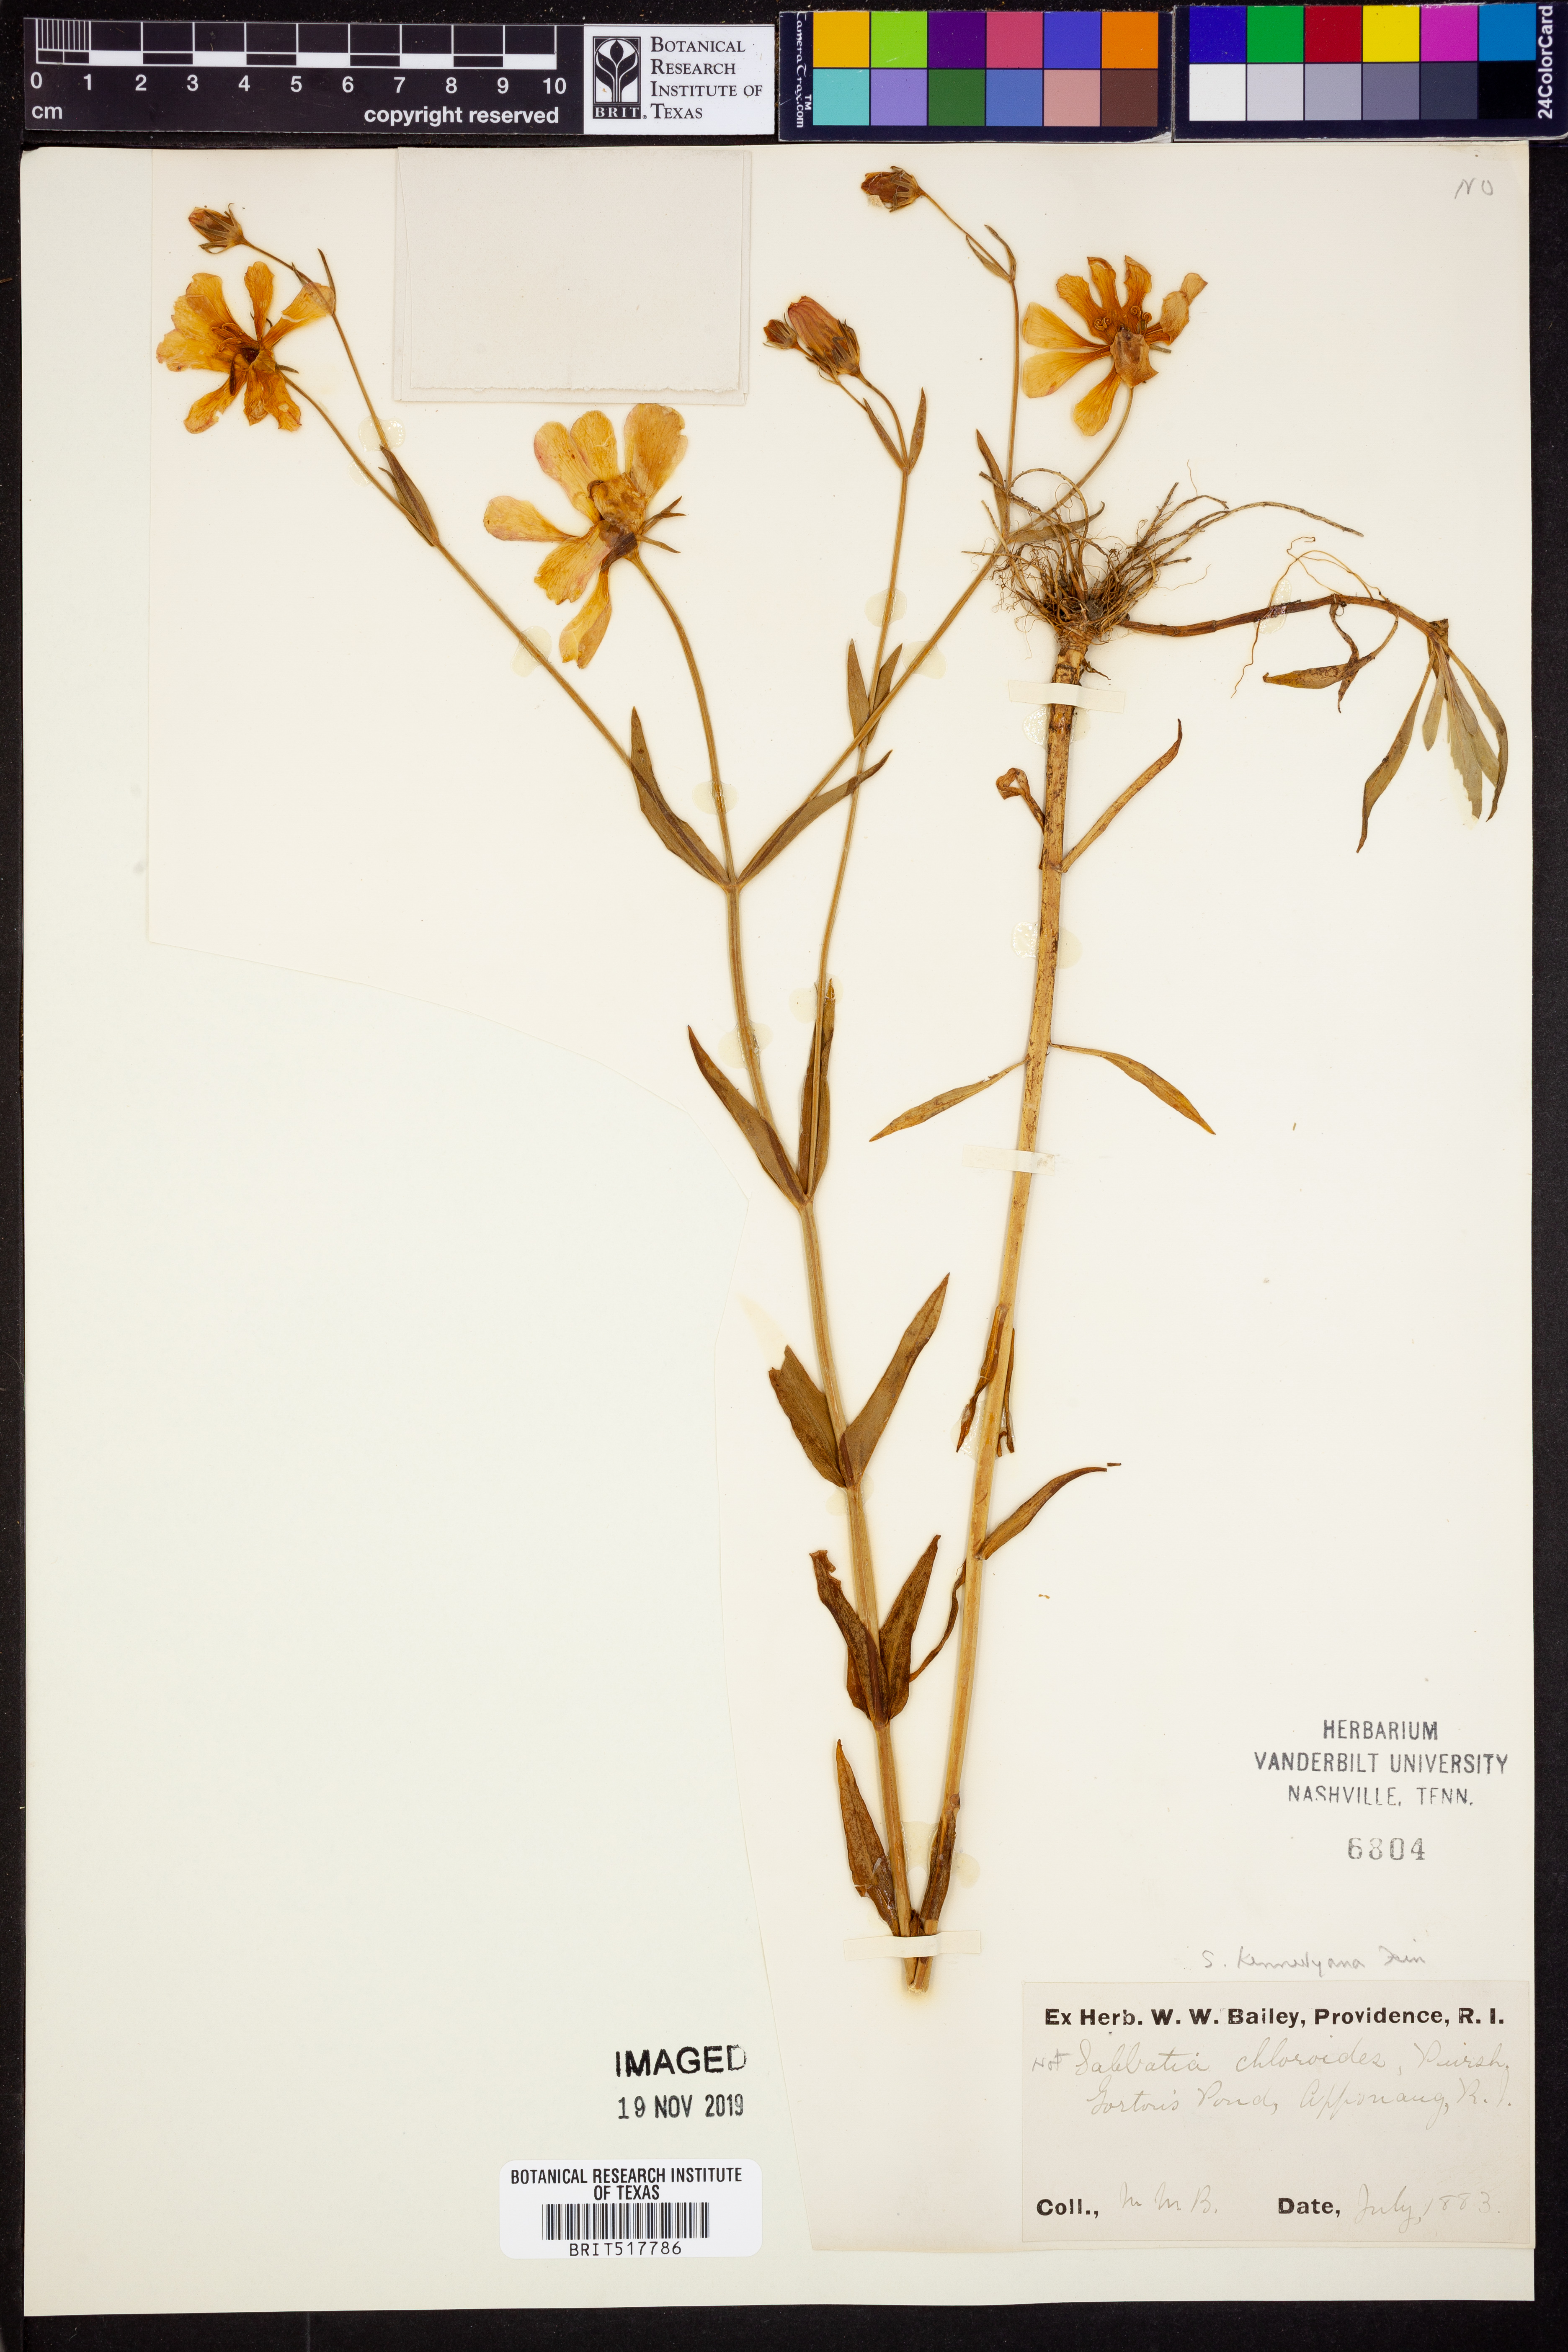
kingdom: Plantae
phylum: Tracheophyta
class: Magnoliopsida
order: Gentianales
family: Gentianaceae
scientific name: Gentianaceae
